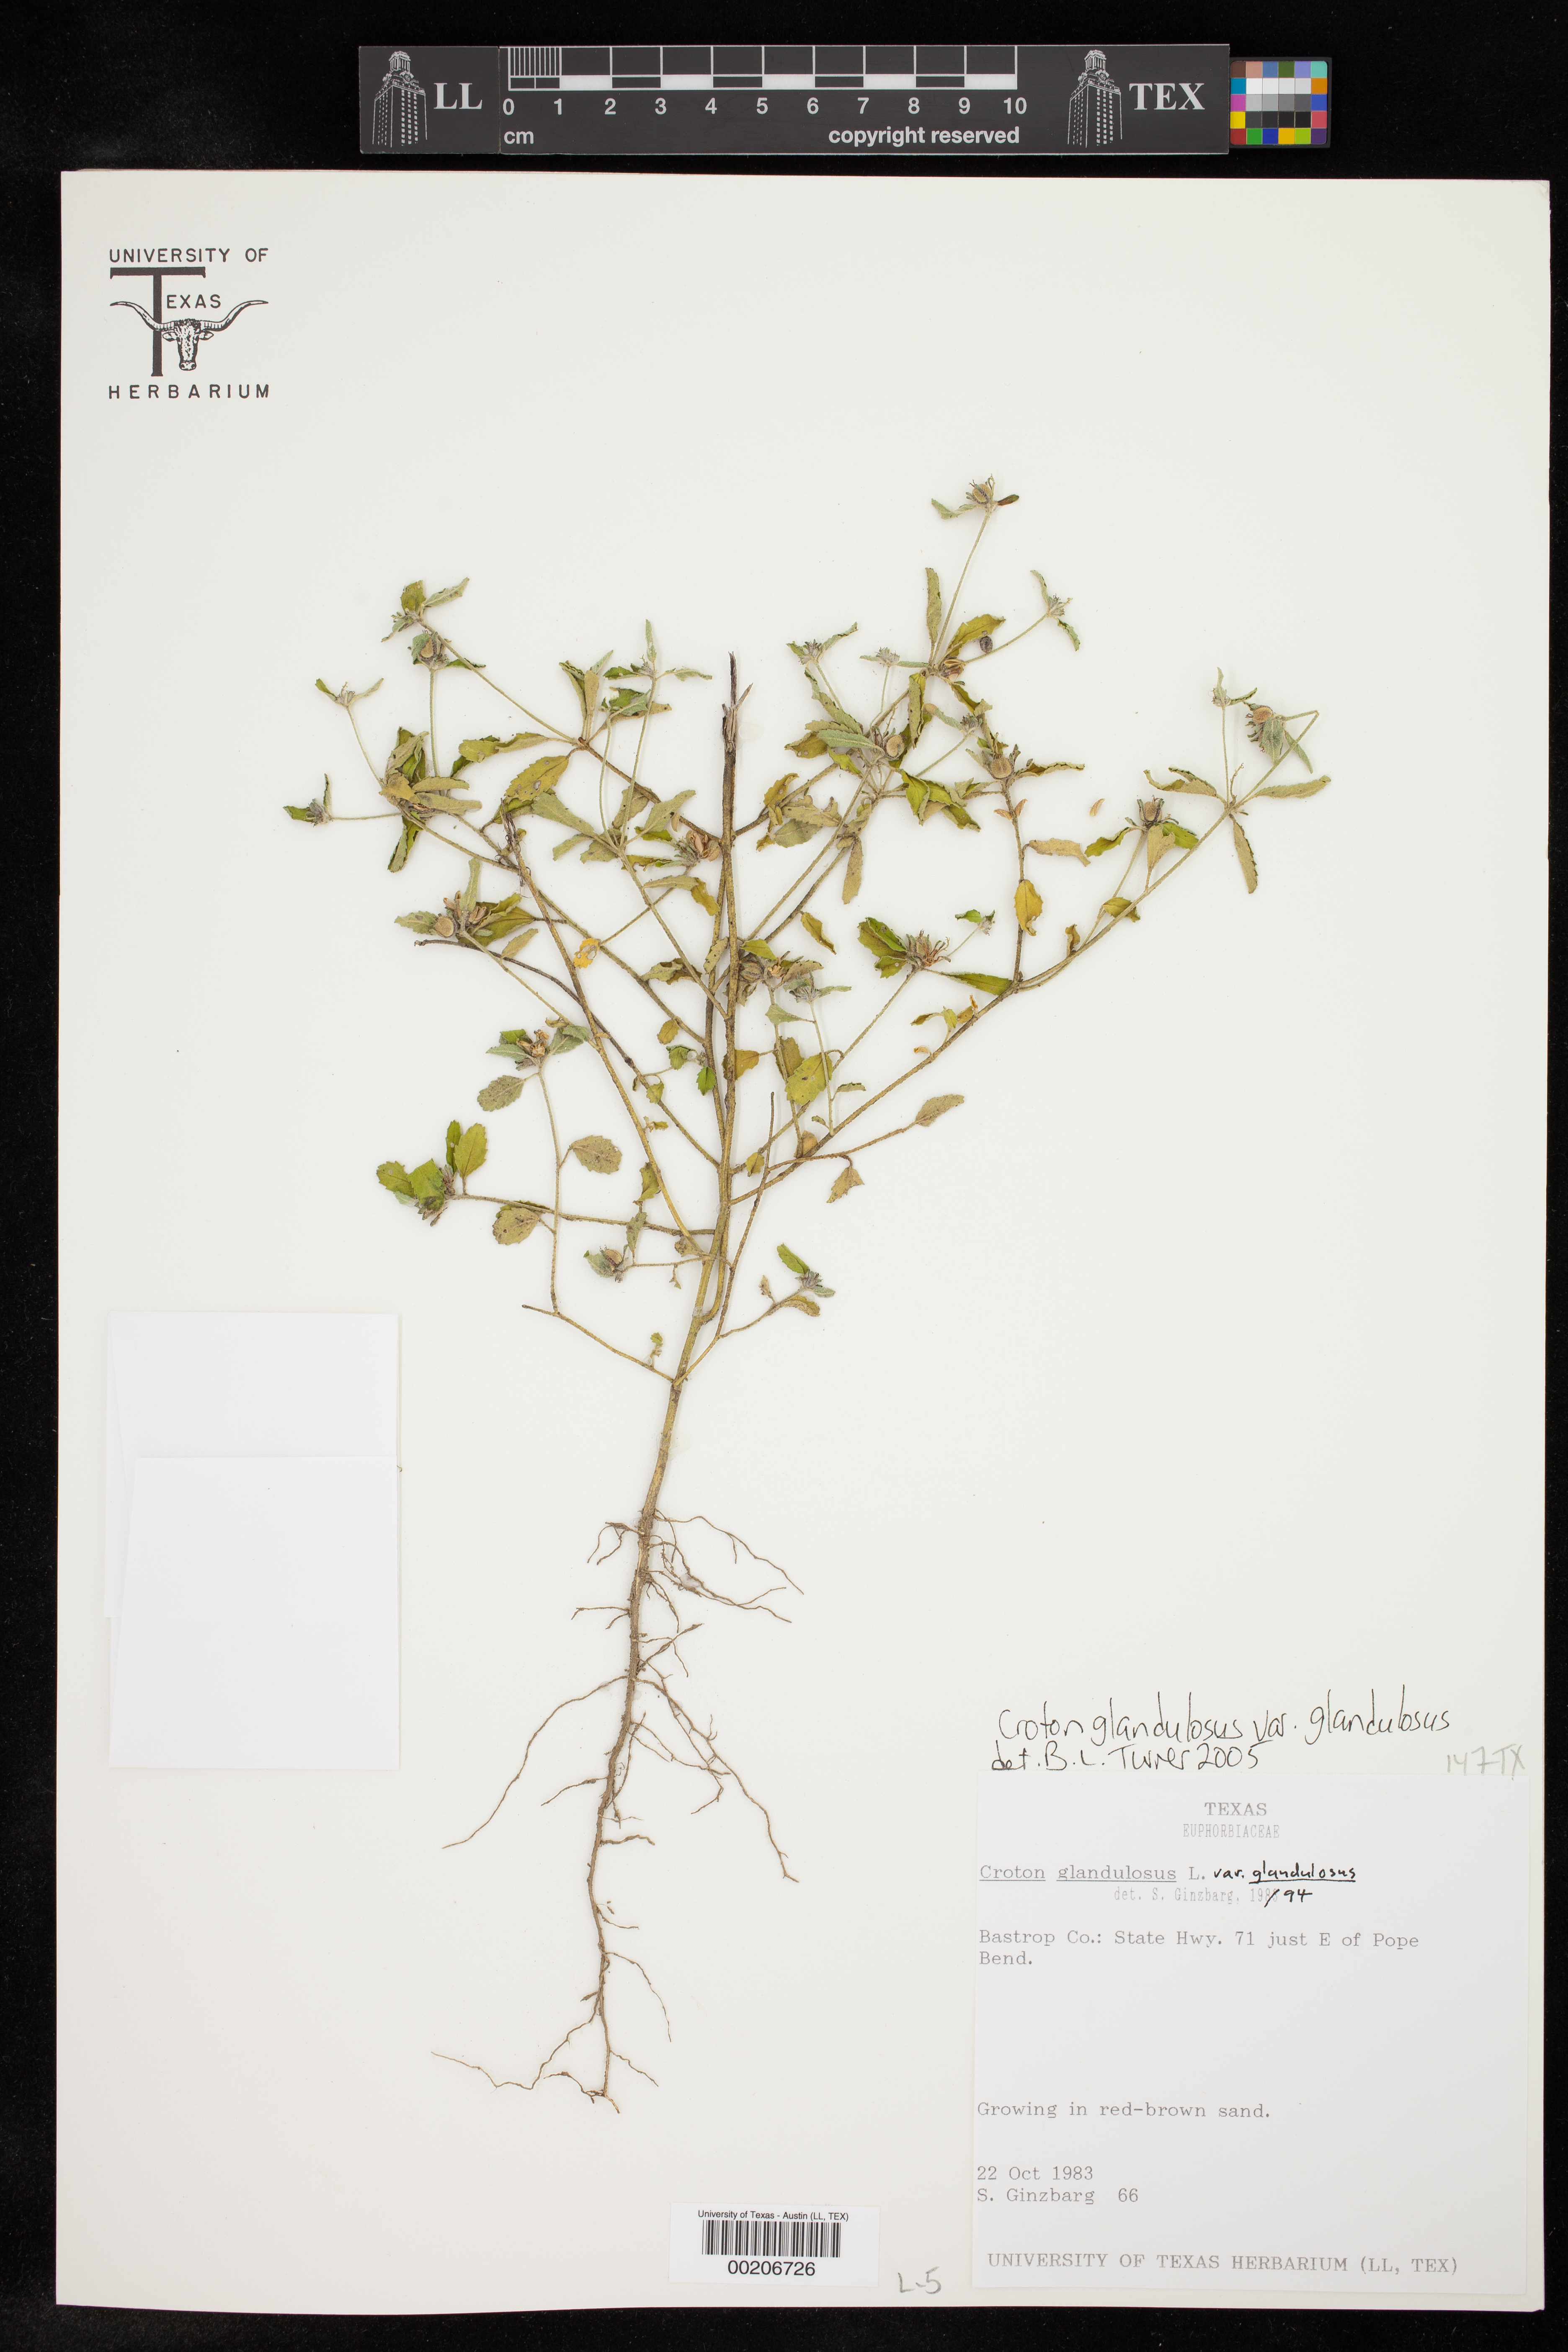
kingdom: Plantae
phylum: Tracheophyta
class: Magnoliopsida
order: Malpighiales
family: Euphorbiaceae
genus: Croton
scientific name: Croton glandulosus
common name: Tropic croton
